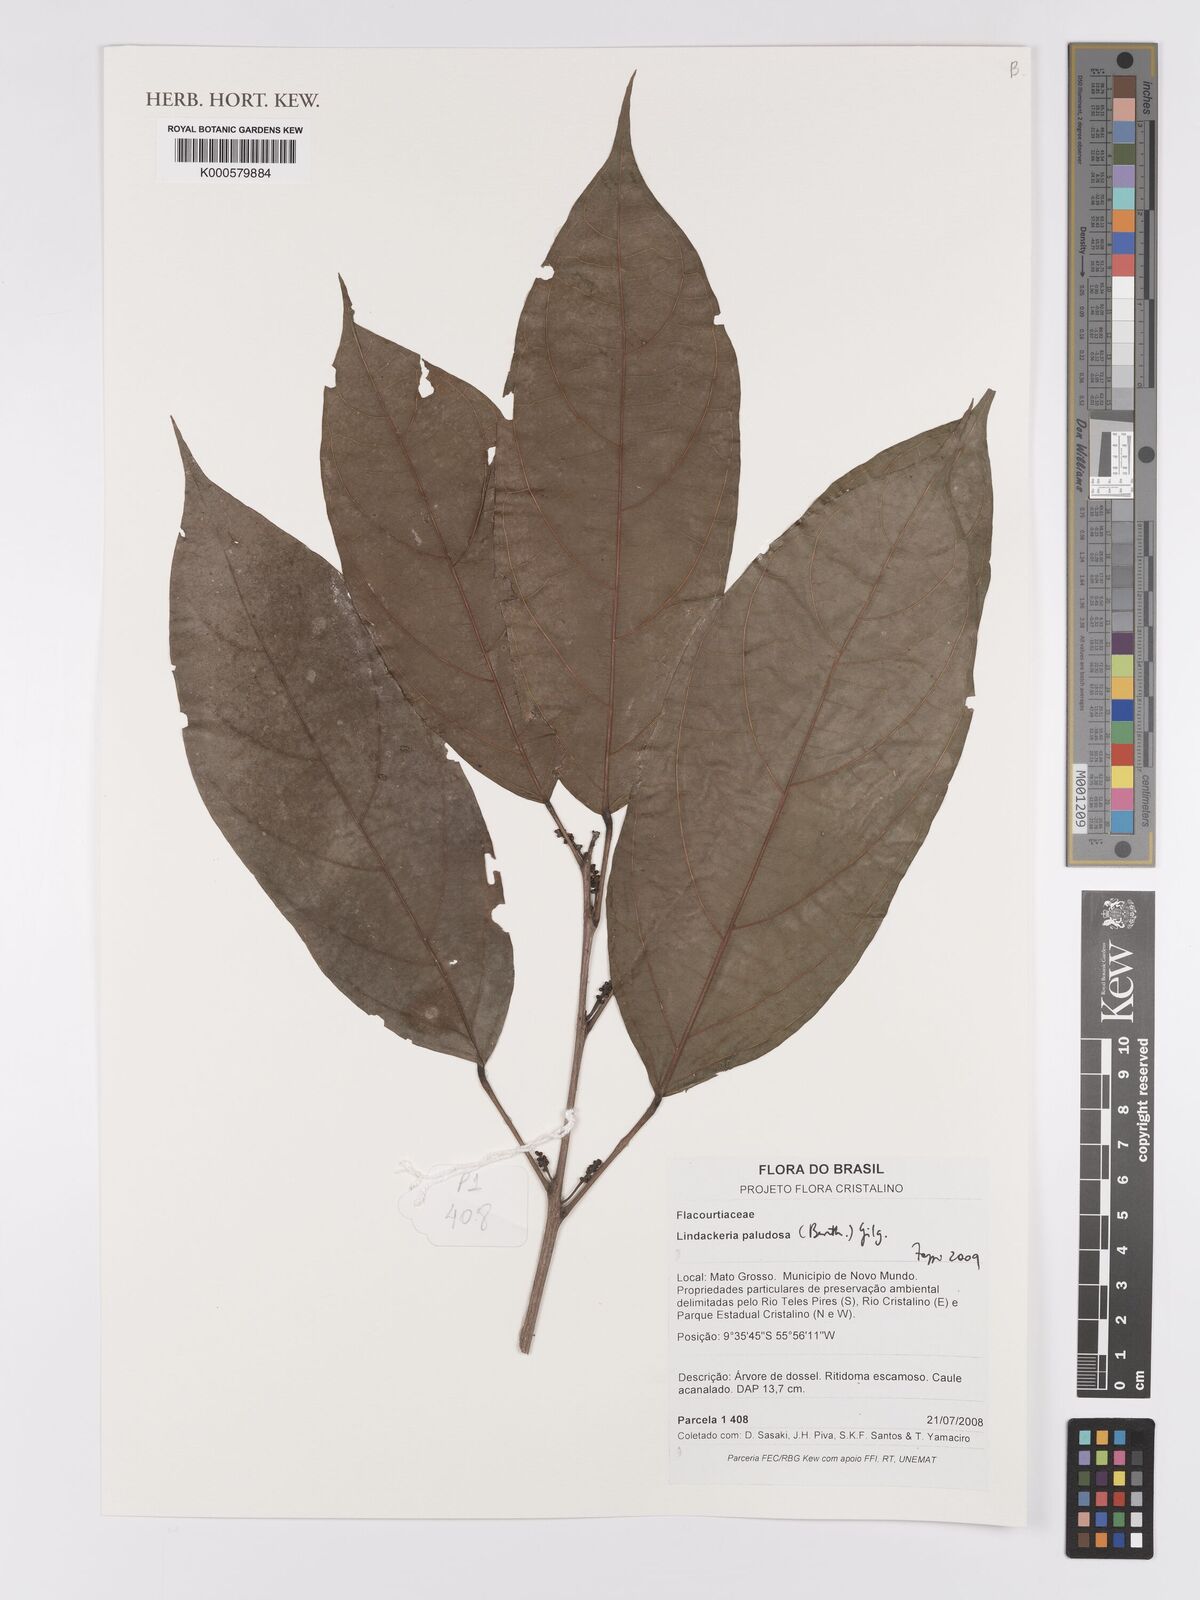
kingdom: Plantae
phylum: Tracheophyta
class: Magnoliopsida
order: Malpighiales
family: Achariaceae
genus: Lindackeria
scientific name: Lindackeria paludosa
